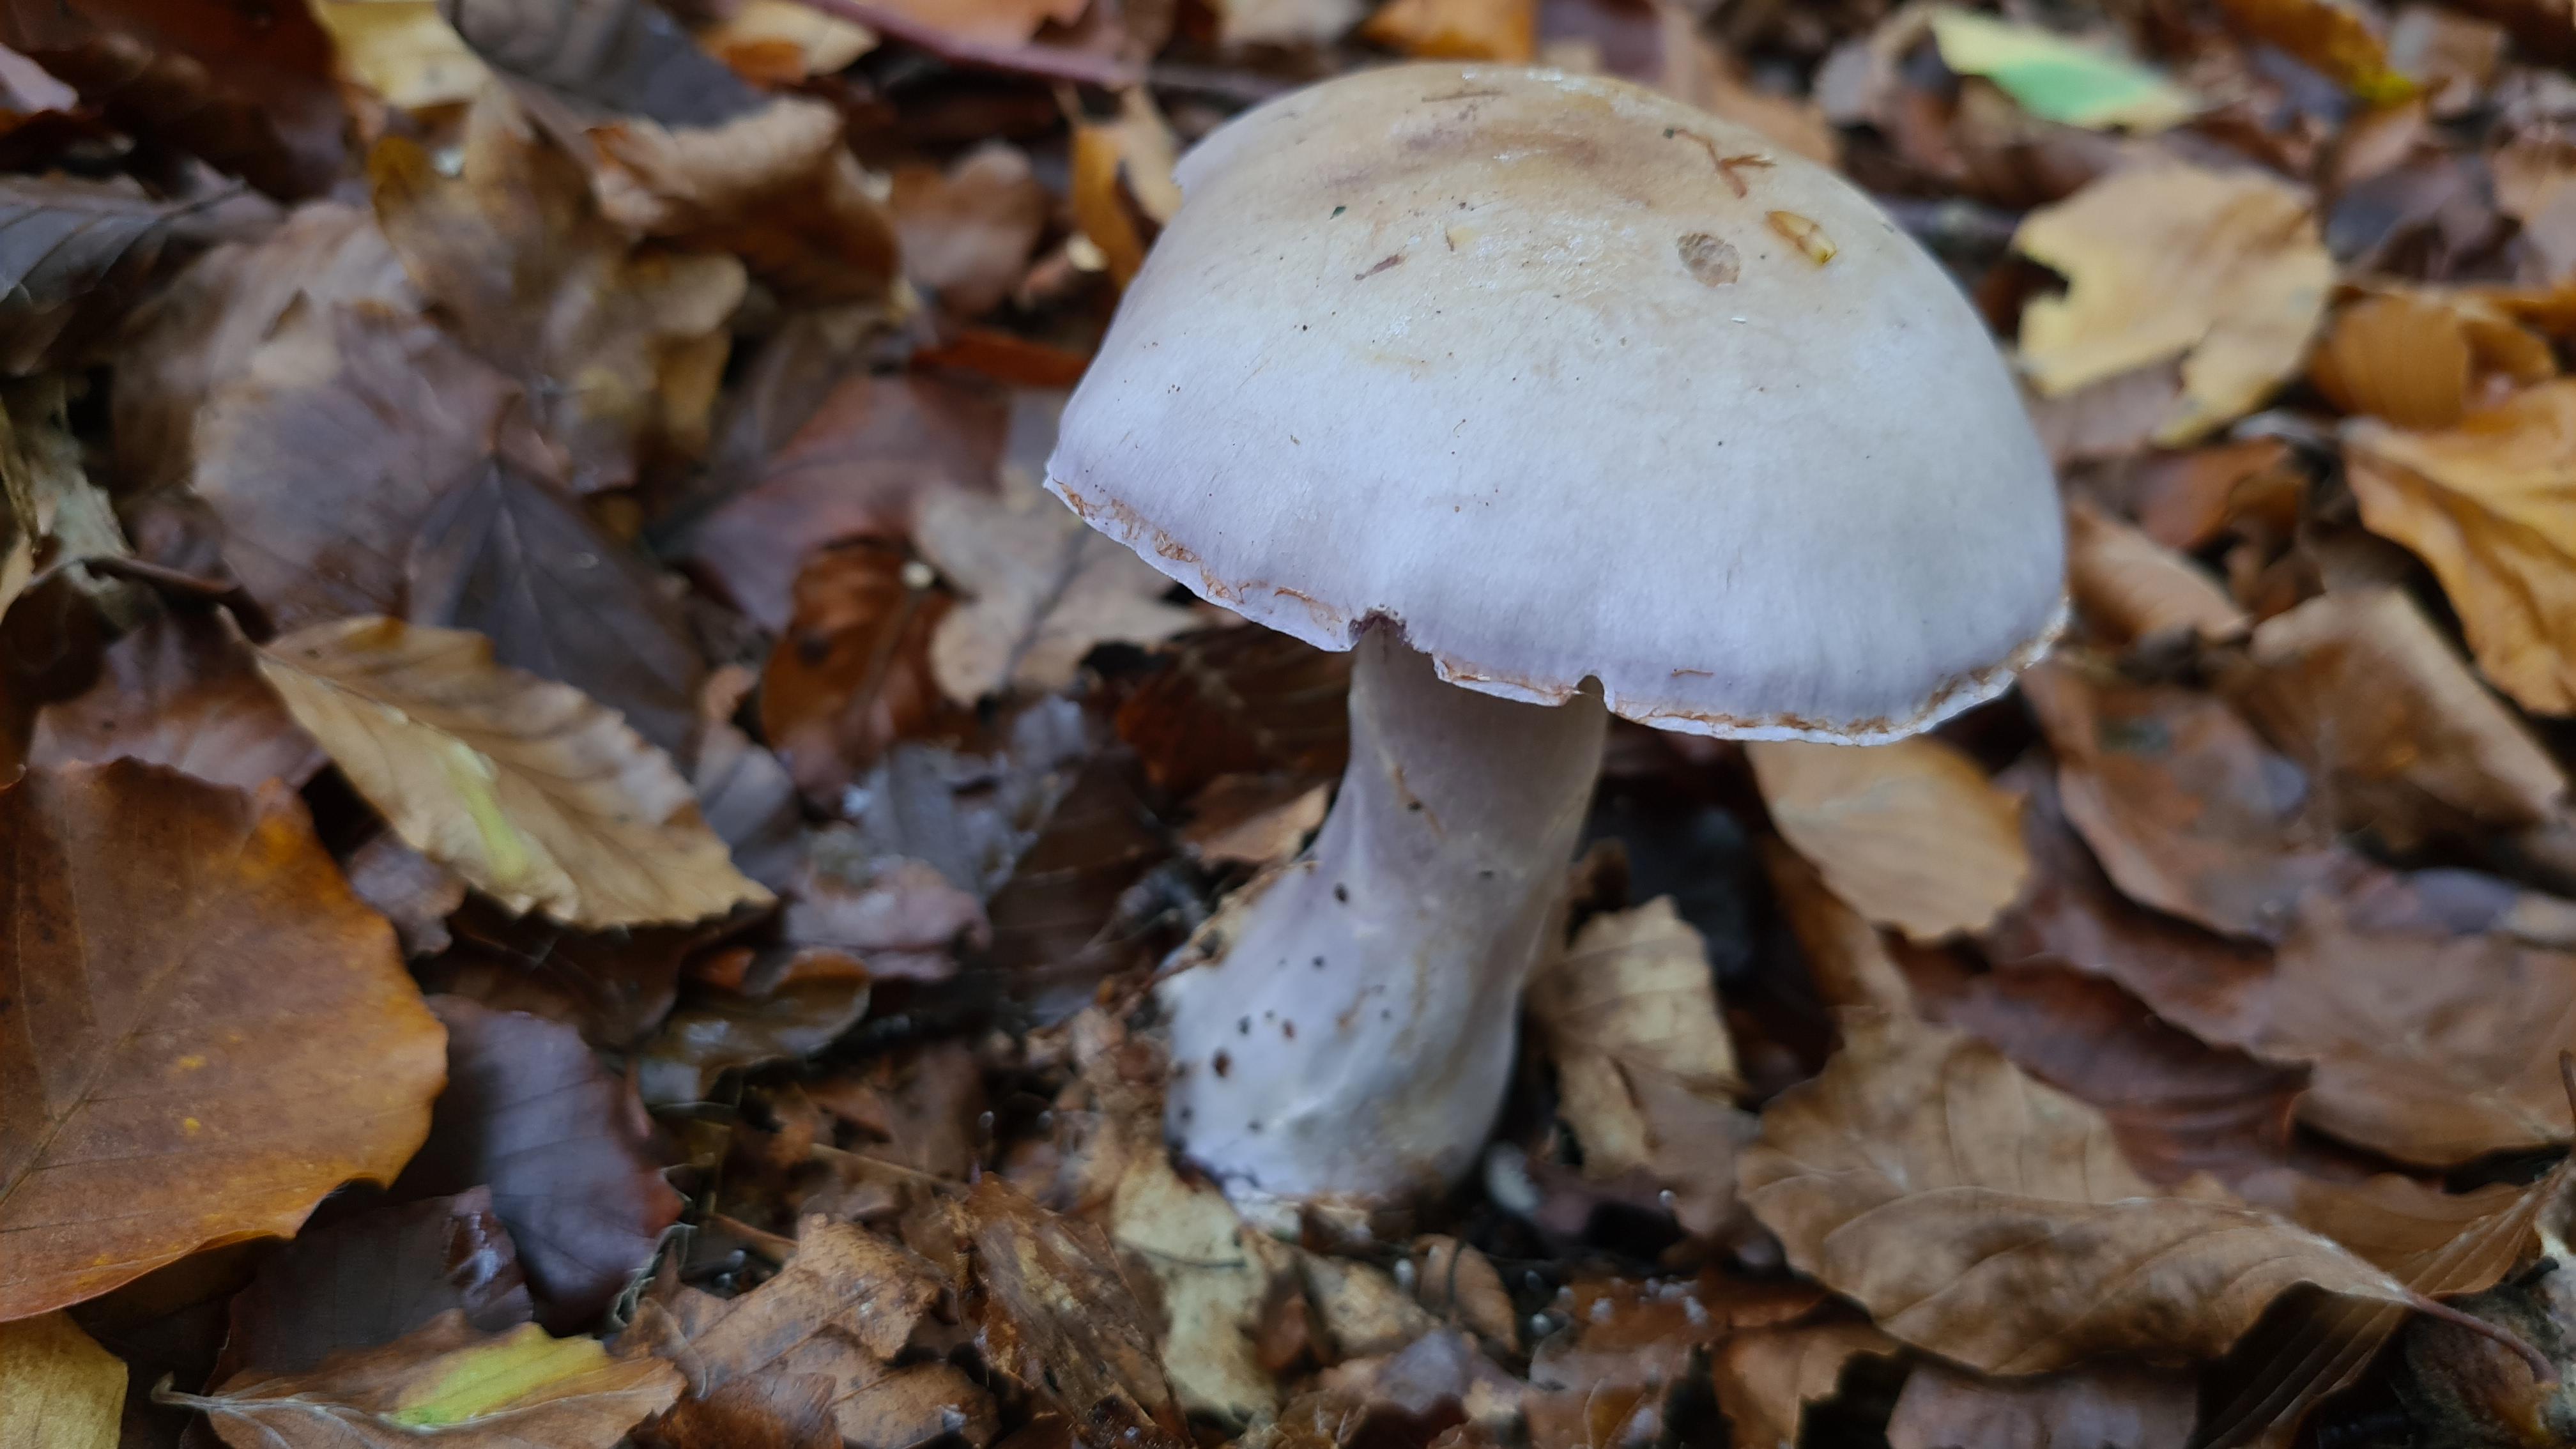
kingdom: Fungi
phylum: Basidiomycota
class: Agaricomycetes
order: Agaricales
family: Cortinariaceae
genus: Cortinarius
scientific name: Cortinarius
